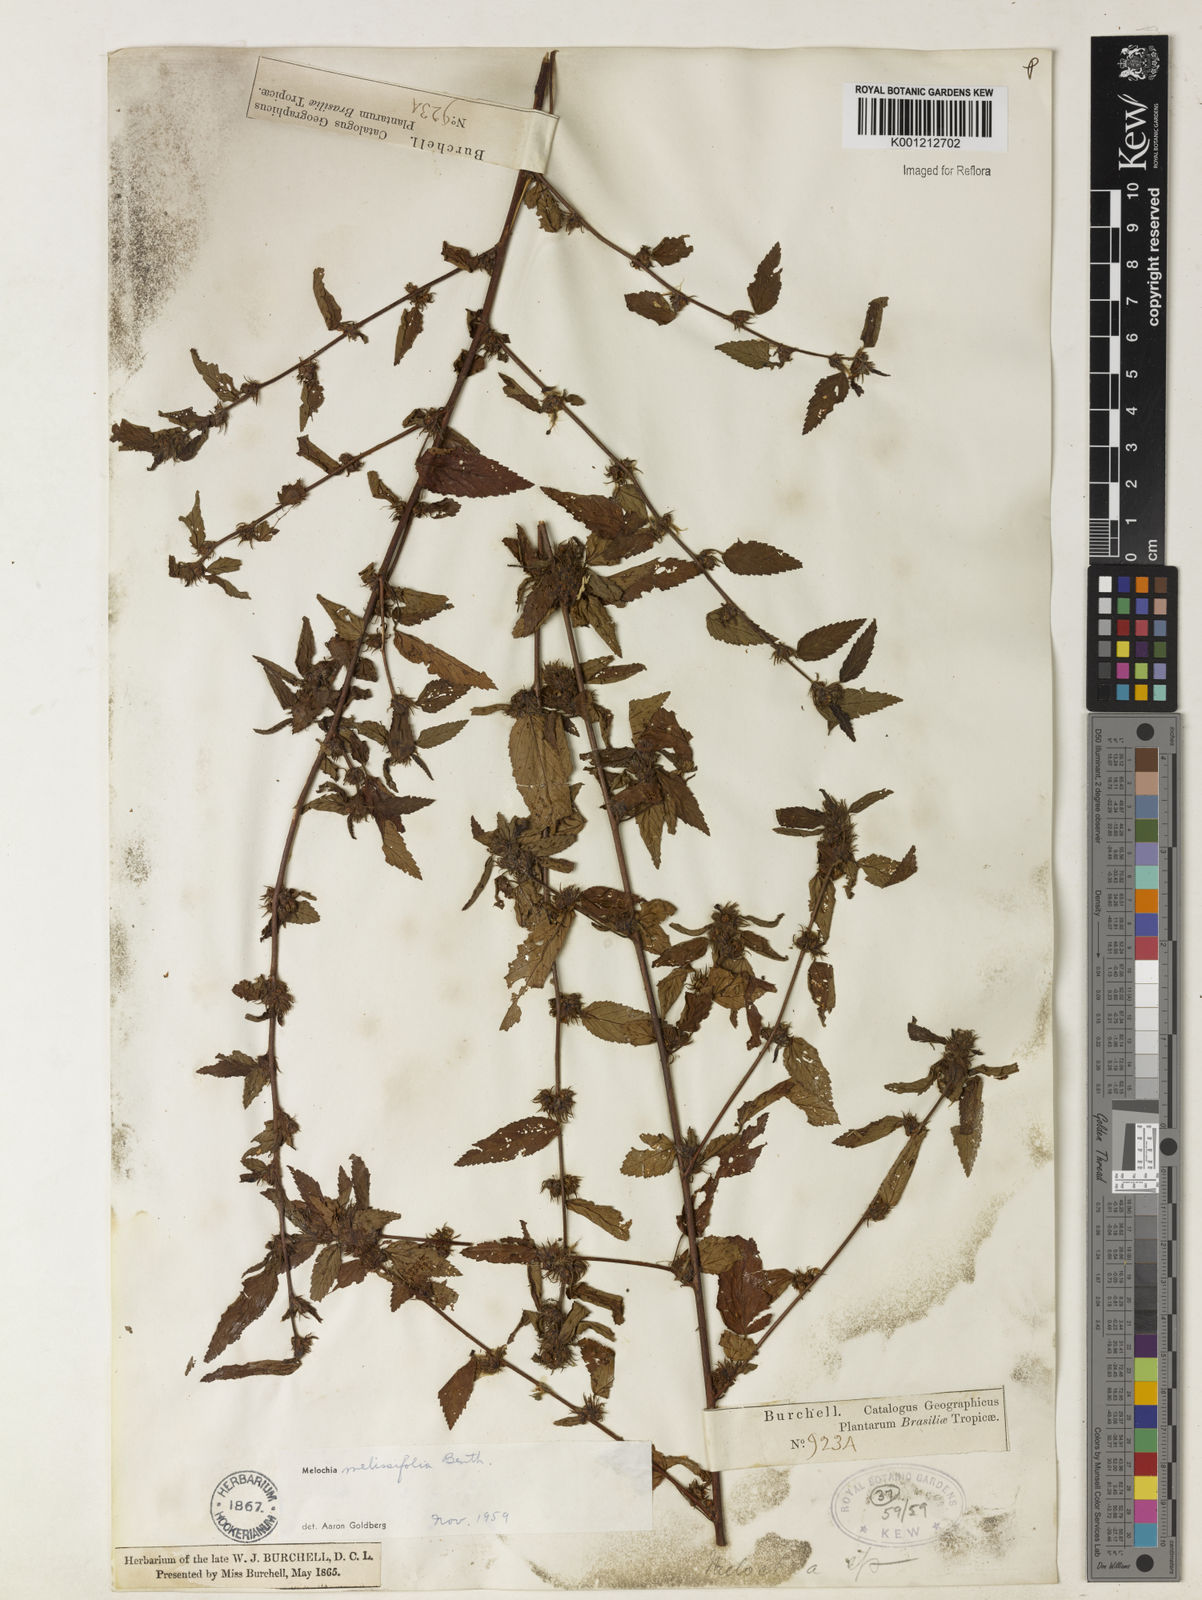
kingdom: Plantae
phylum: Tracheophyta
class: Magnoliopsida
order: Malvales
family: Malvaceae
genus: Melochia
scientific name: Melochia melissifolia
